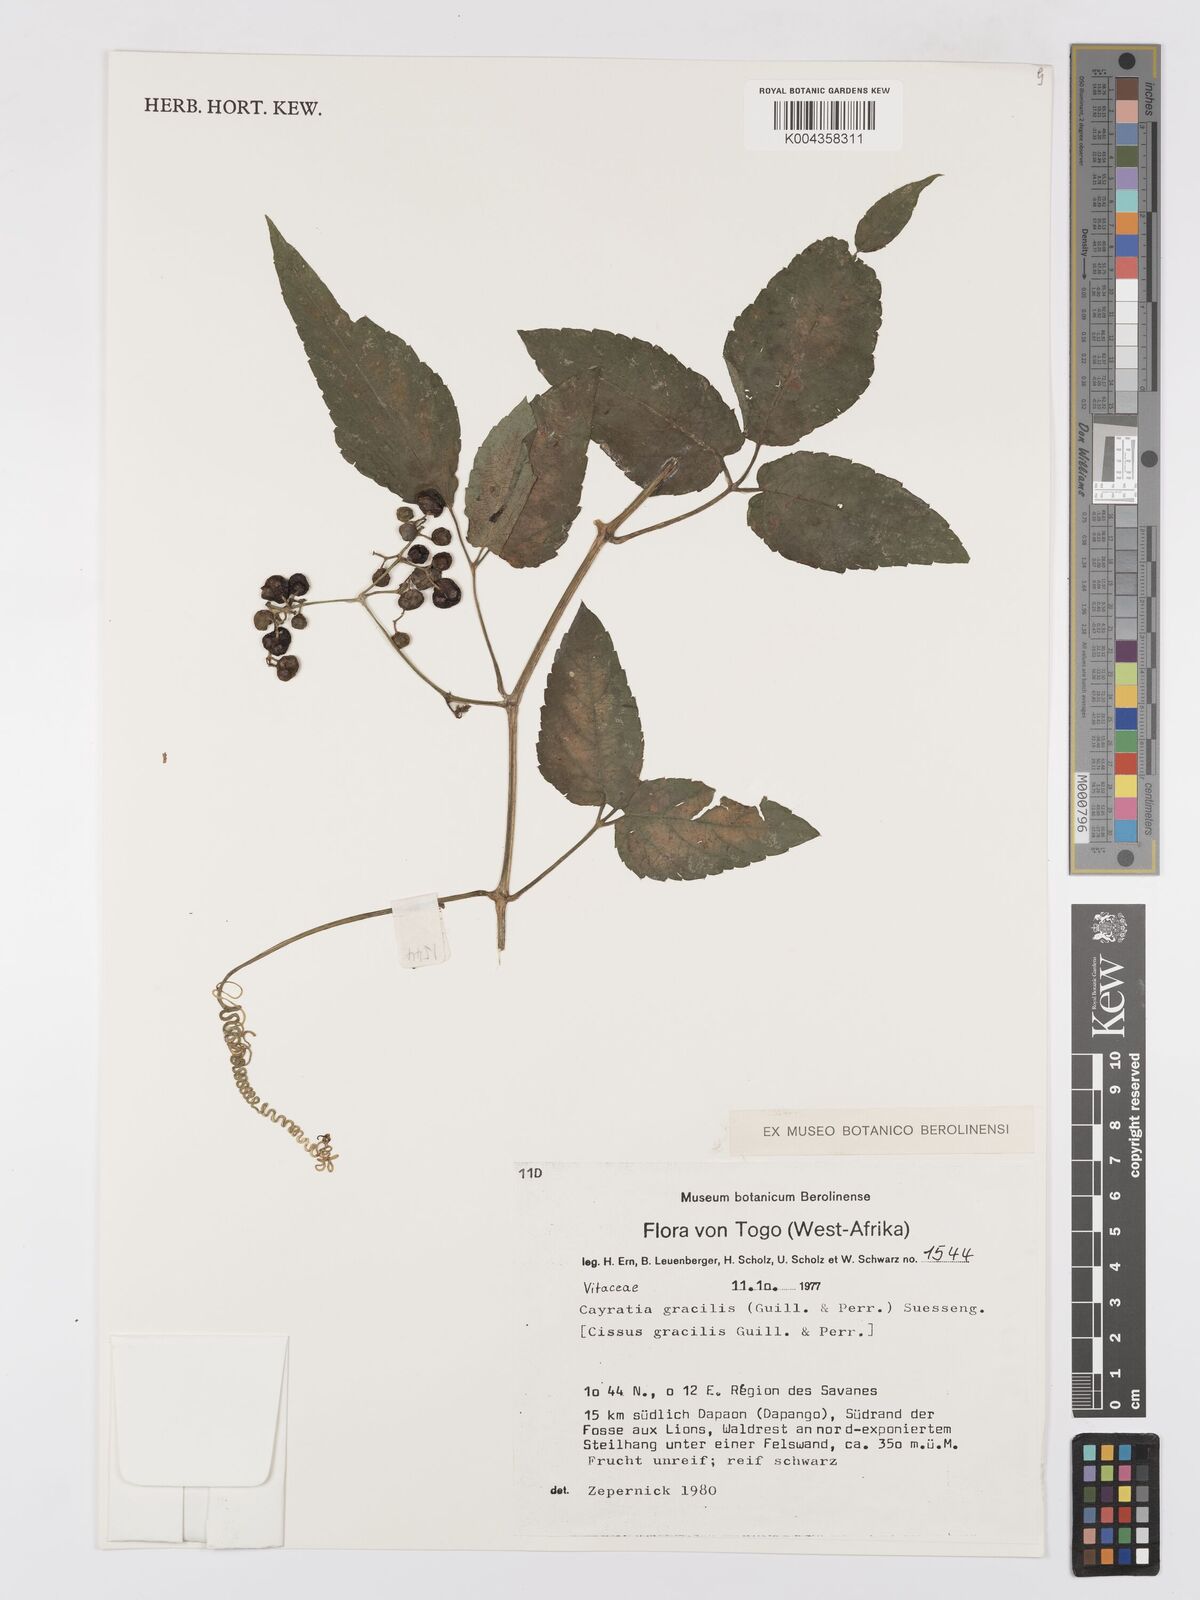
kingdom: Plantae
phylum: Tracheophyta
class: Magnoliopsida
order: Vitales
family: Vitaceae
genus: Afrocayratia
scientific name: Afrocayratia gracilis
